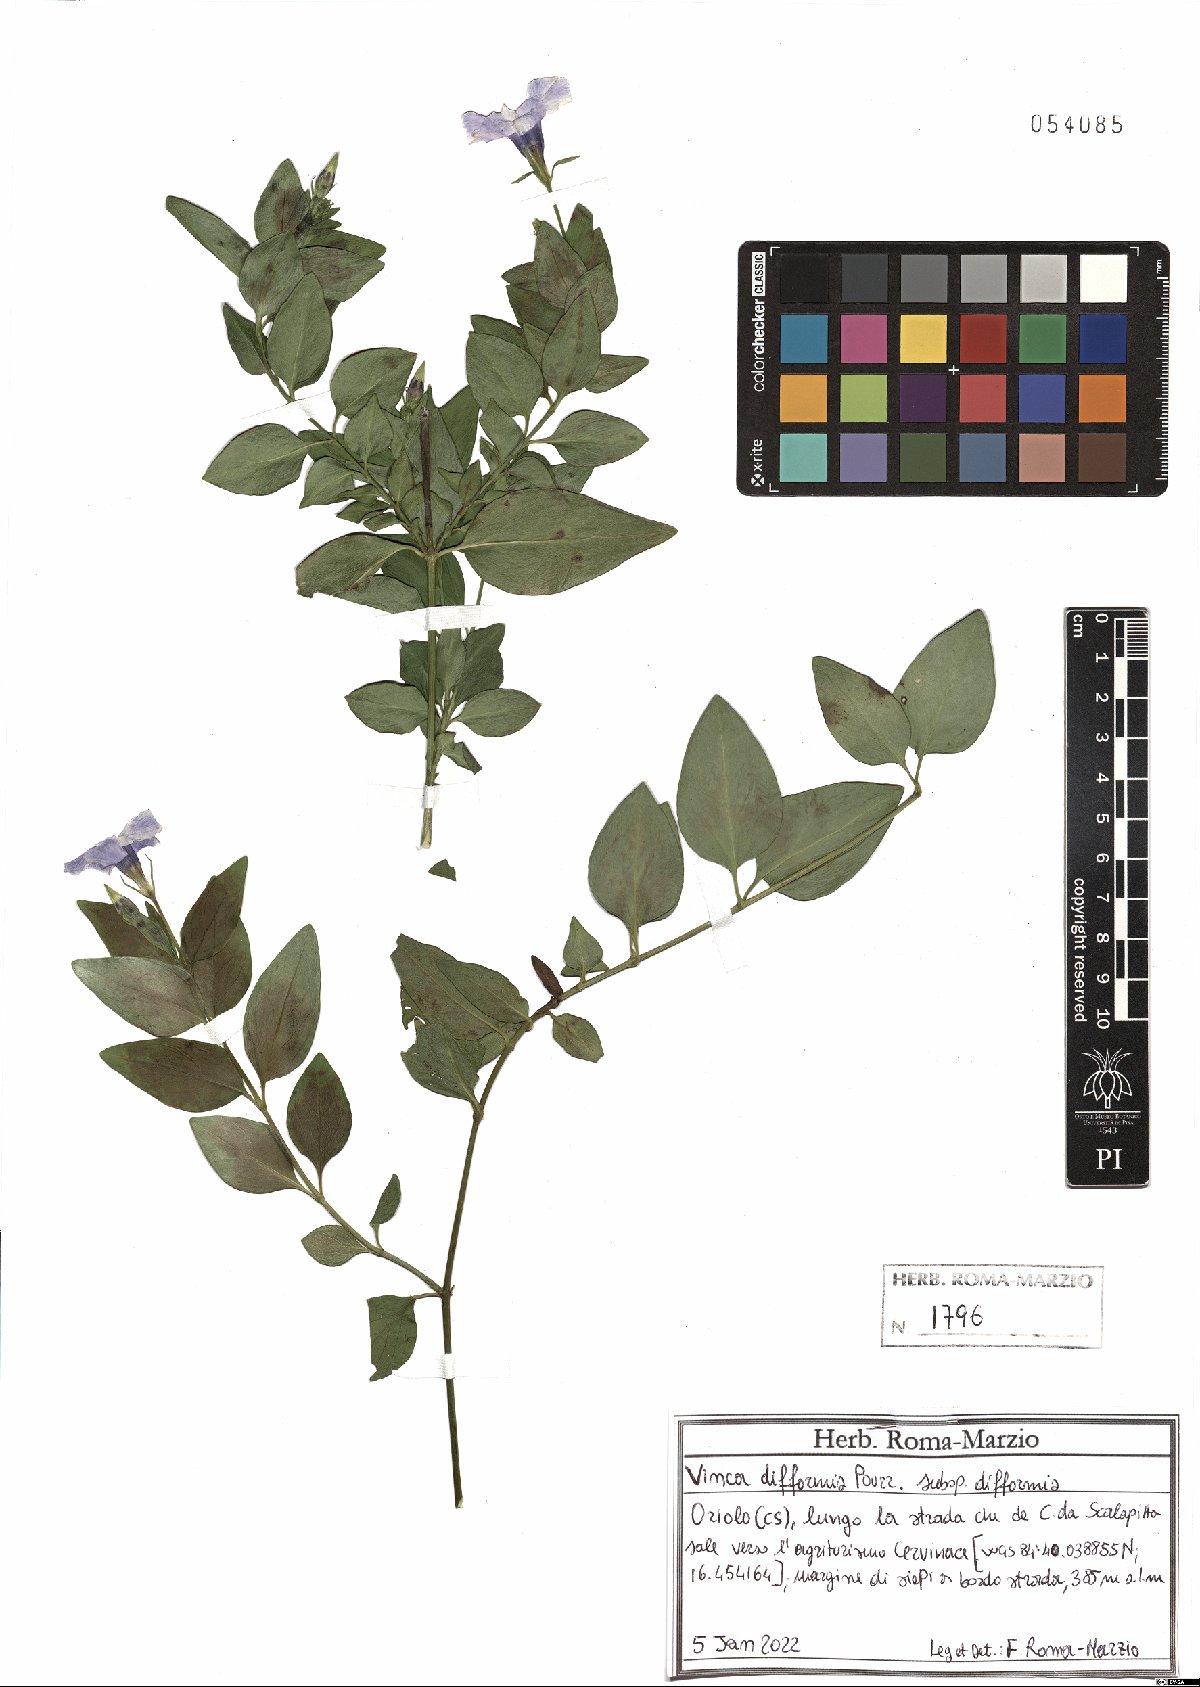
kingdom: Plantae
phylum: Tracheophyta
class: Magnoliopsida
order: Gentianales
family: Apocynaceae
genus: Vinca
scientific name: Vinca difformis
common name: Intermediate periwinkle
